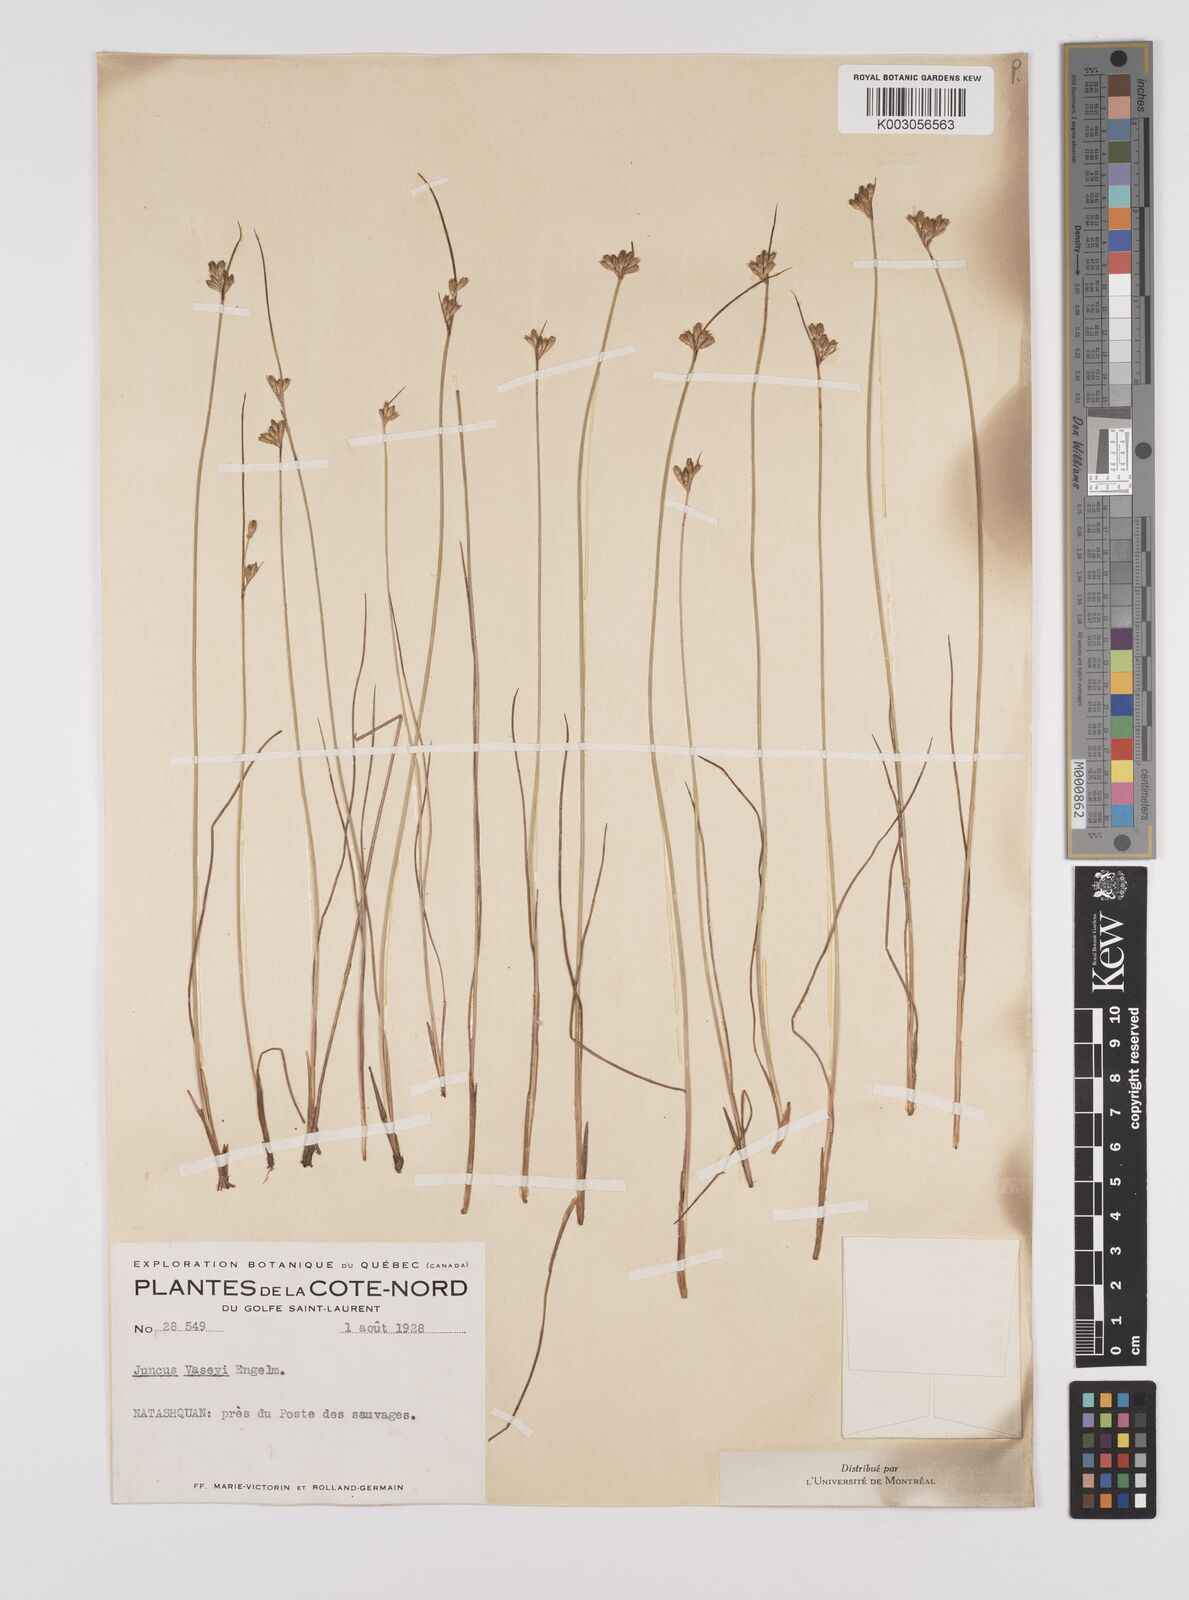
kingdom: Plantae
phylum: Tracheophyta
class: Liliopsida
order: Poales
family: Juncaceae
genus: Juncus
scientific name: Juncus vaseyi
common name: Big-headed rush
